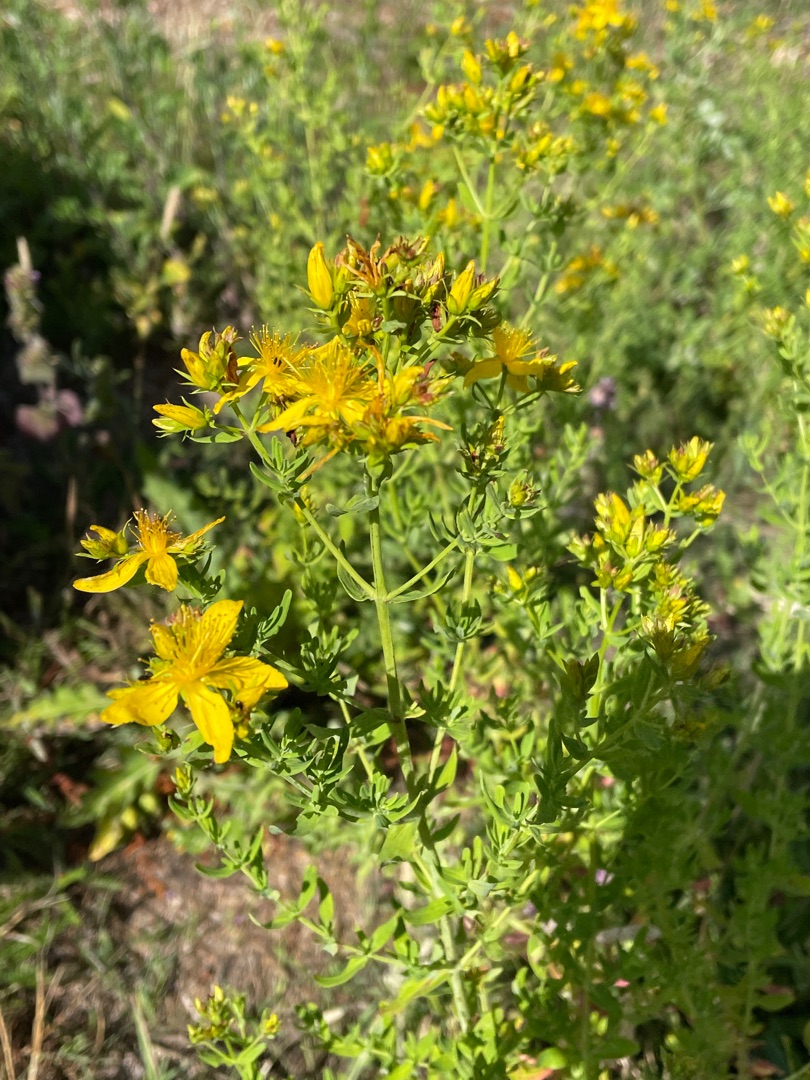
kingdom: Plantae
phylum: Tracheophyta
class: Magnoliopsida
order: Malpighiales
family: Hypericaceae
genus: Hypericum
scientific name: Hypericum perforatum
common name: Prikbladet perikon
